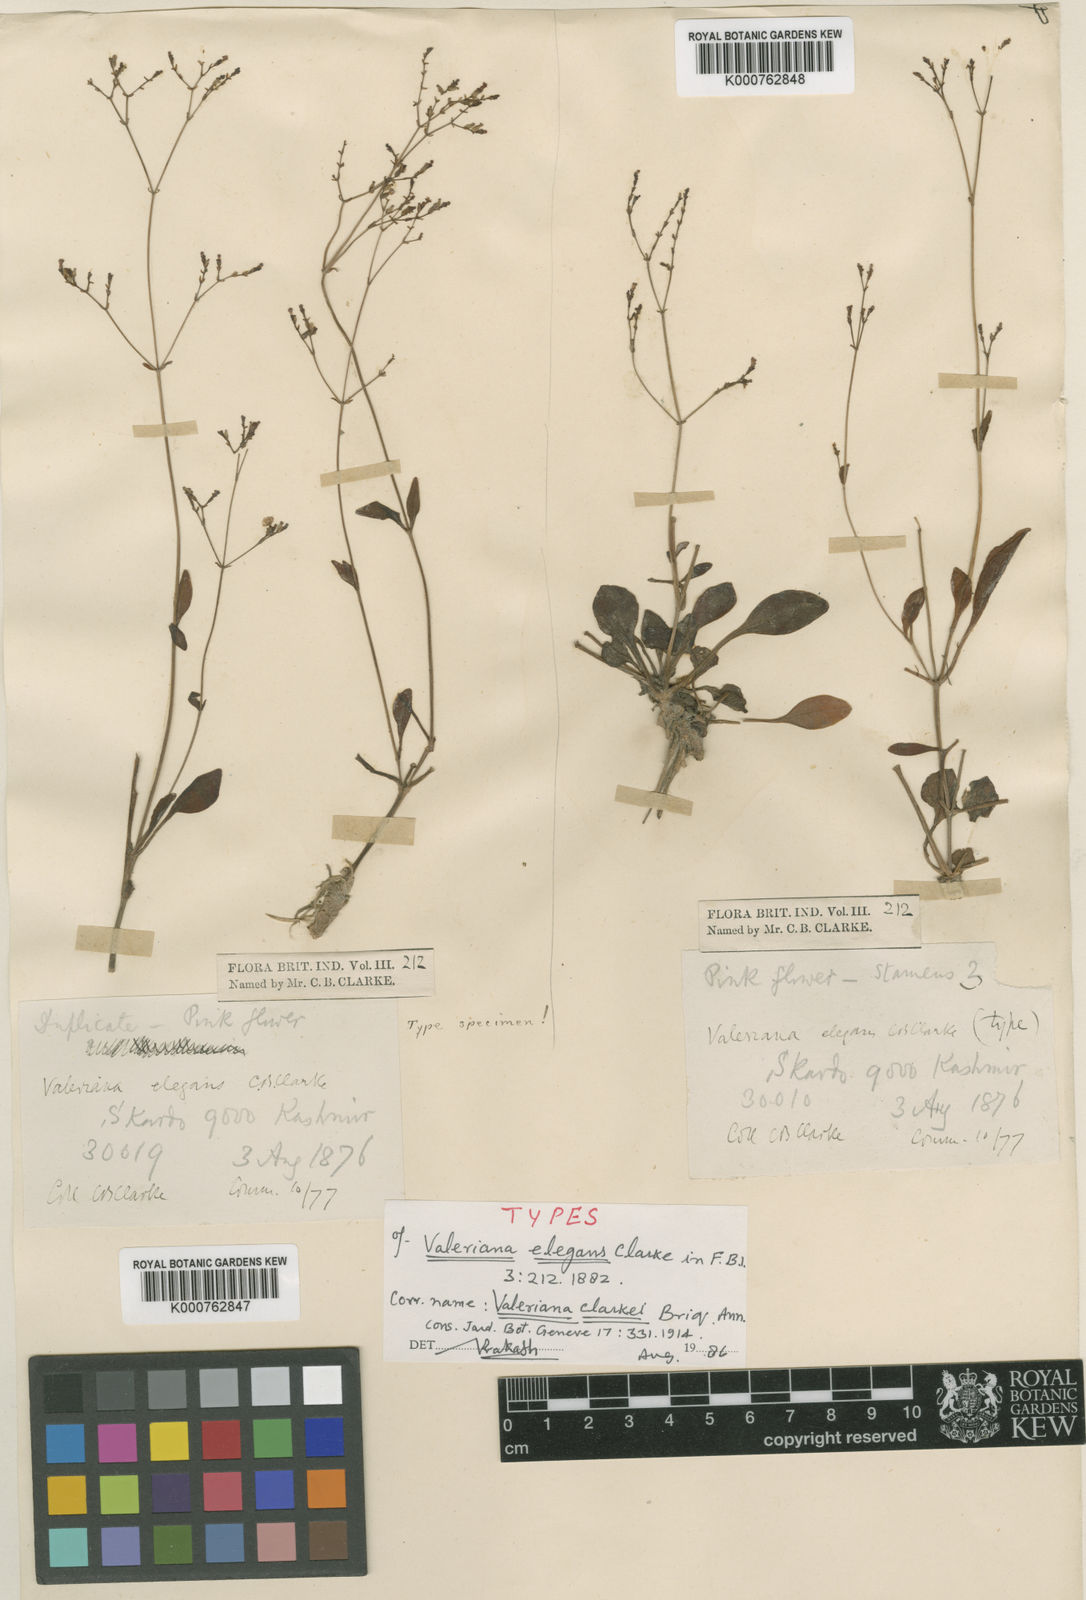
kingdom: Plantae
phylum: Tracheophyta
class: Magnoliopsida
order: Dipsacales
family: Caprifoliaceae
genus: Valeriana
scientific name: Valeriana clarkei
